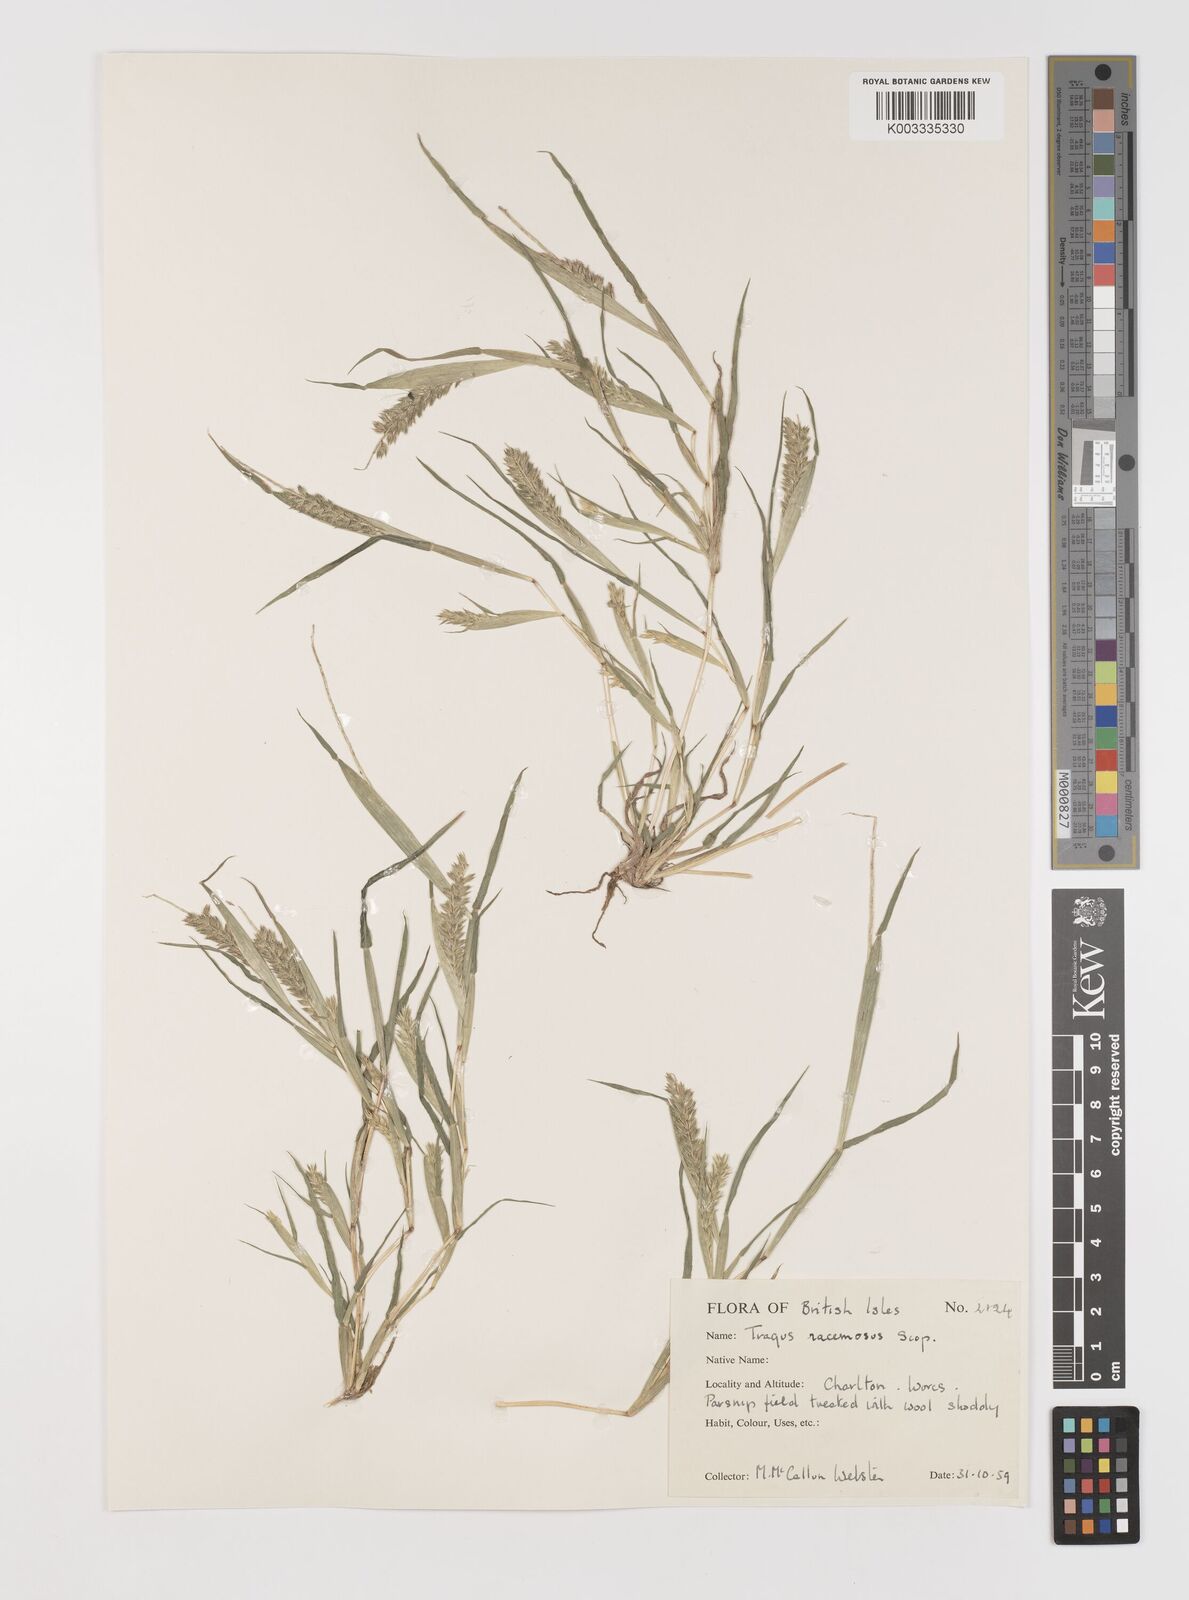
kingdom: Plantae
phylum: Tracheophyta
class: Liliopsida
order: Poales
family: Poaceae
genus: Tragus
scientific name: Tragus racemosus
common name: European bur-grass
